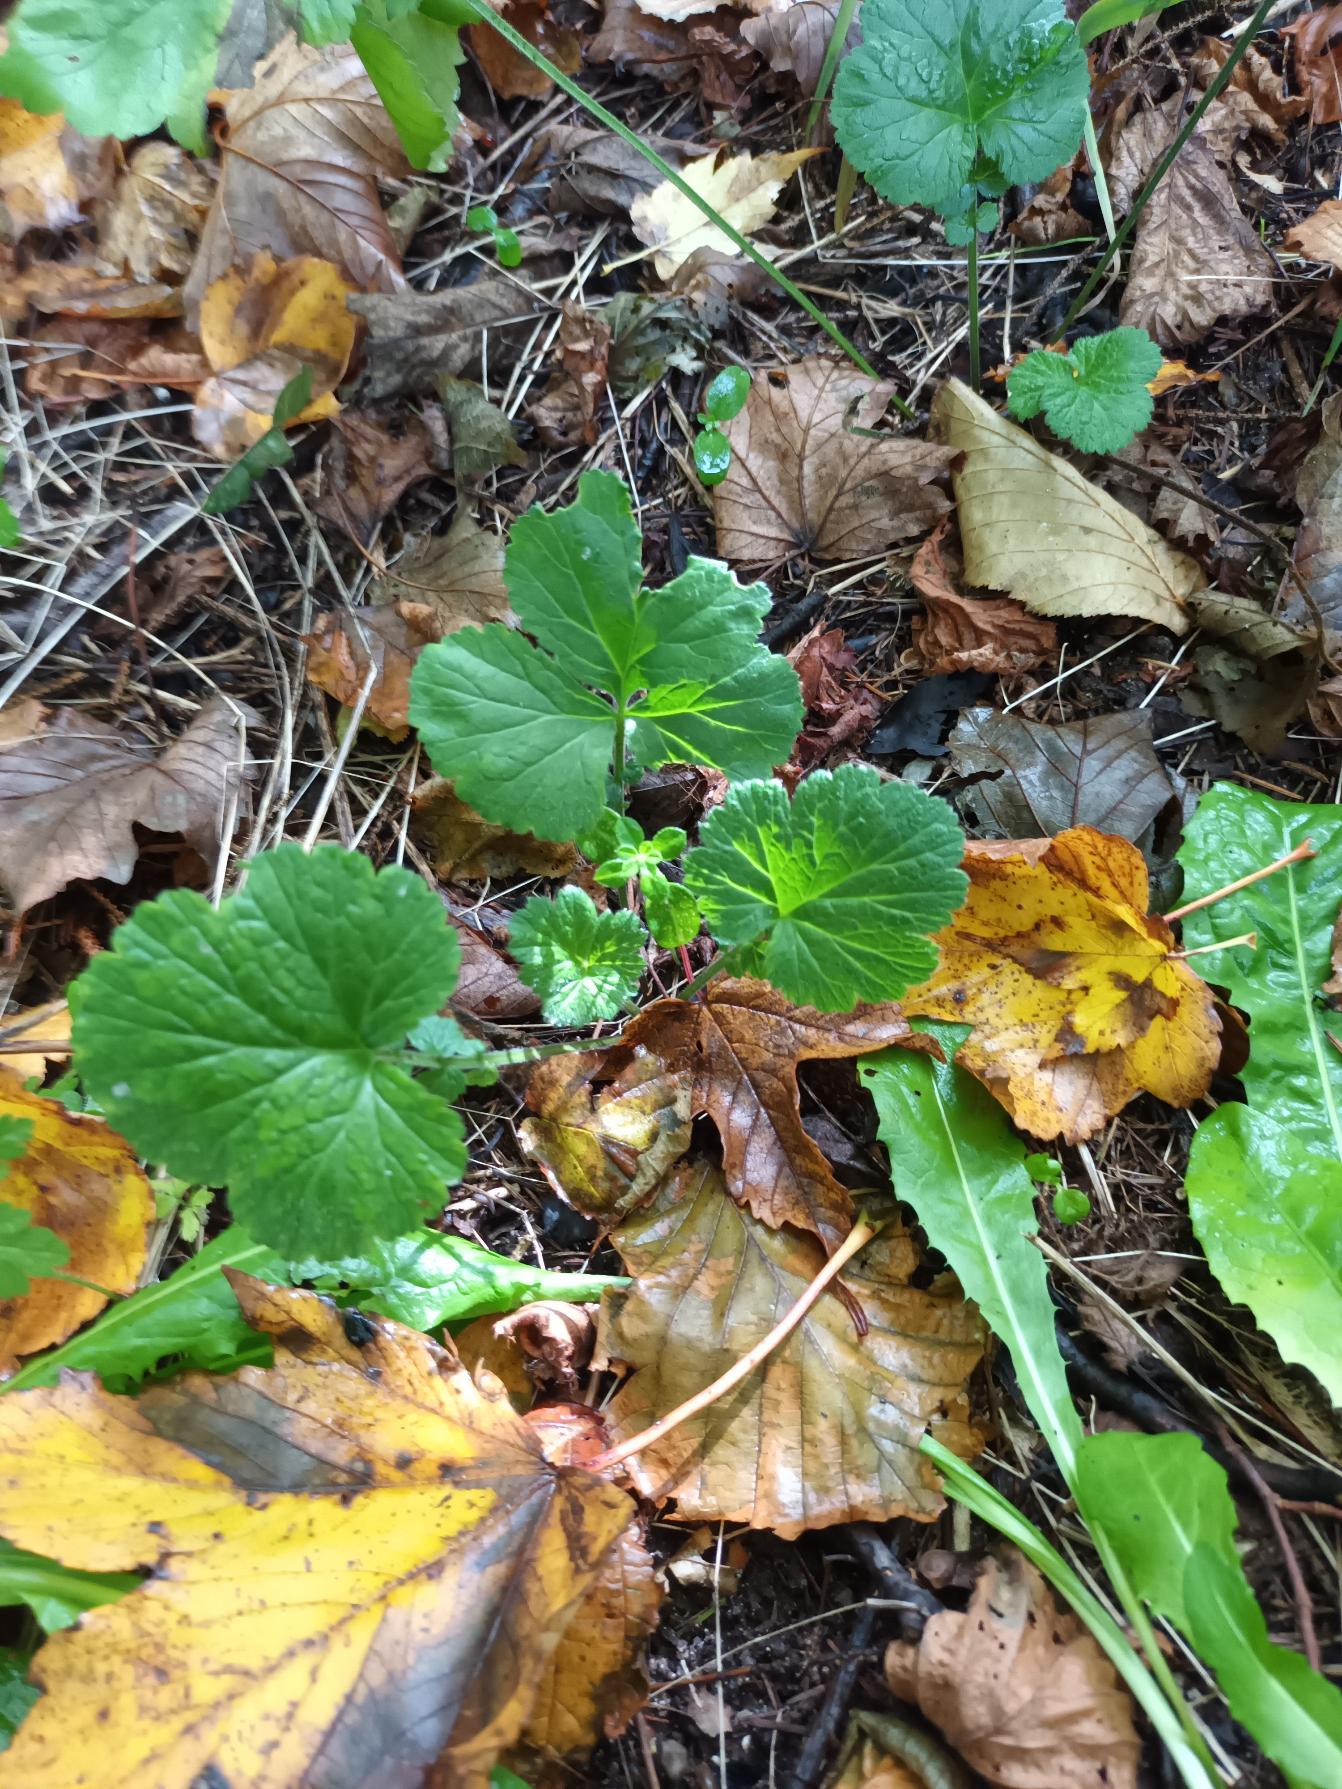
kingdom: Plantae
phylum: Tracheophyta
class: Magnoliopsida
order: Rosales
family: Rosaceae
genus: Geum
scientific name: Geum urbanum
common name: Feber-nellikerod
